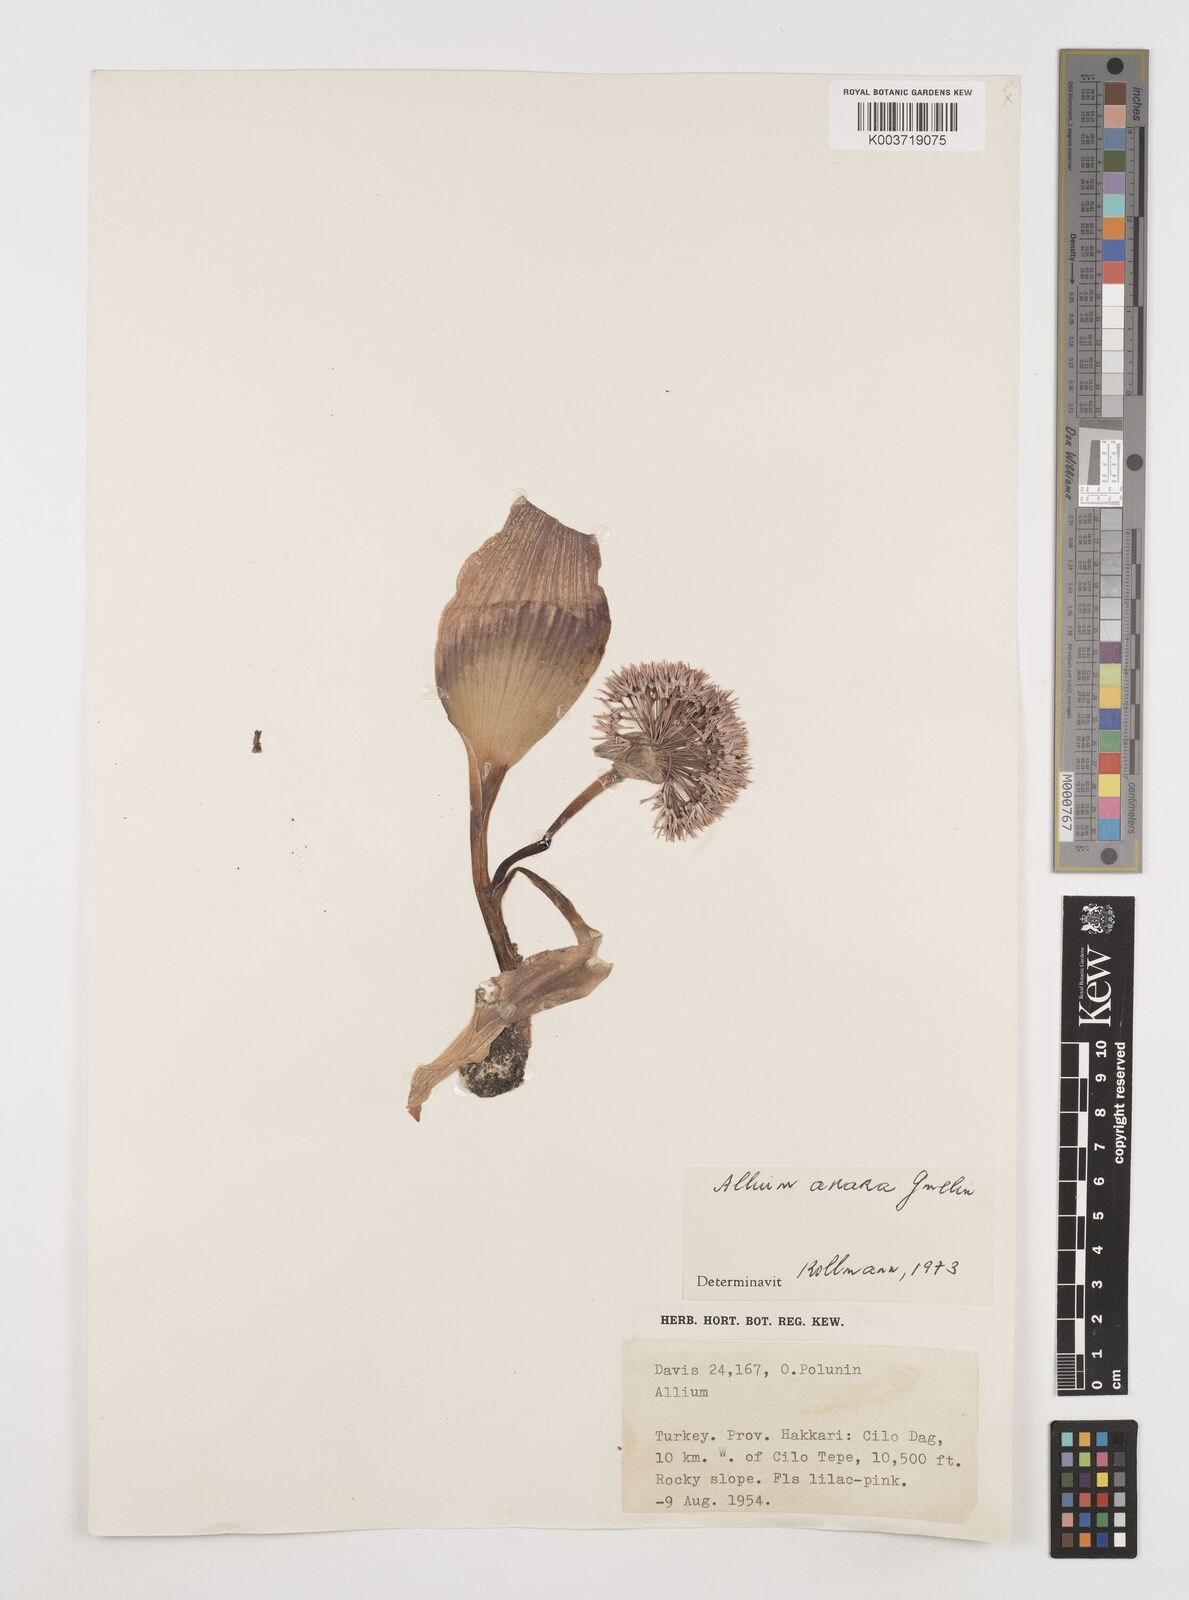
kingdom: Plantae
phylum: Tracheophyta
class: Liliopsida
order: Asparagales
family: Amaryllidaceae
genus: Allium
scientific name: Allium akaka
